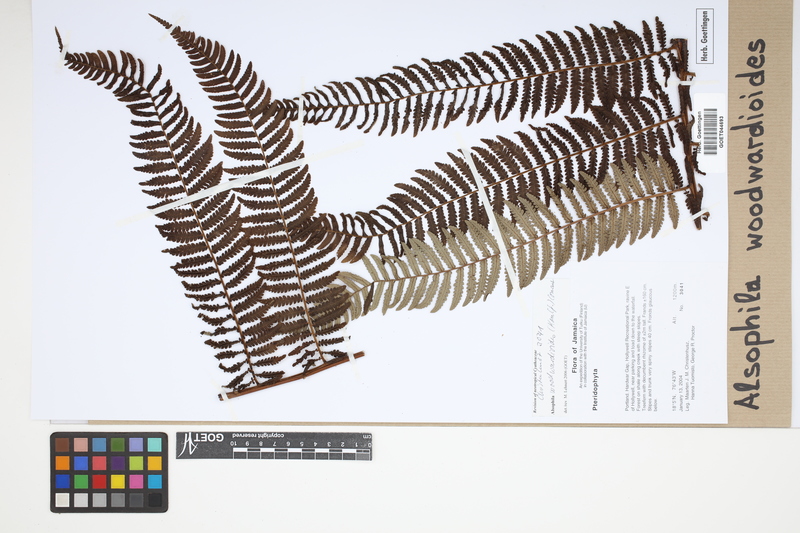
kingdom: Plantae
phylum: Tracheophyta
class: Polypodiopsida
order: Cyatheales
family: Cyatheaceae
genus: Alsophila
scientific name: Alsophila woodwardioides
